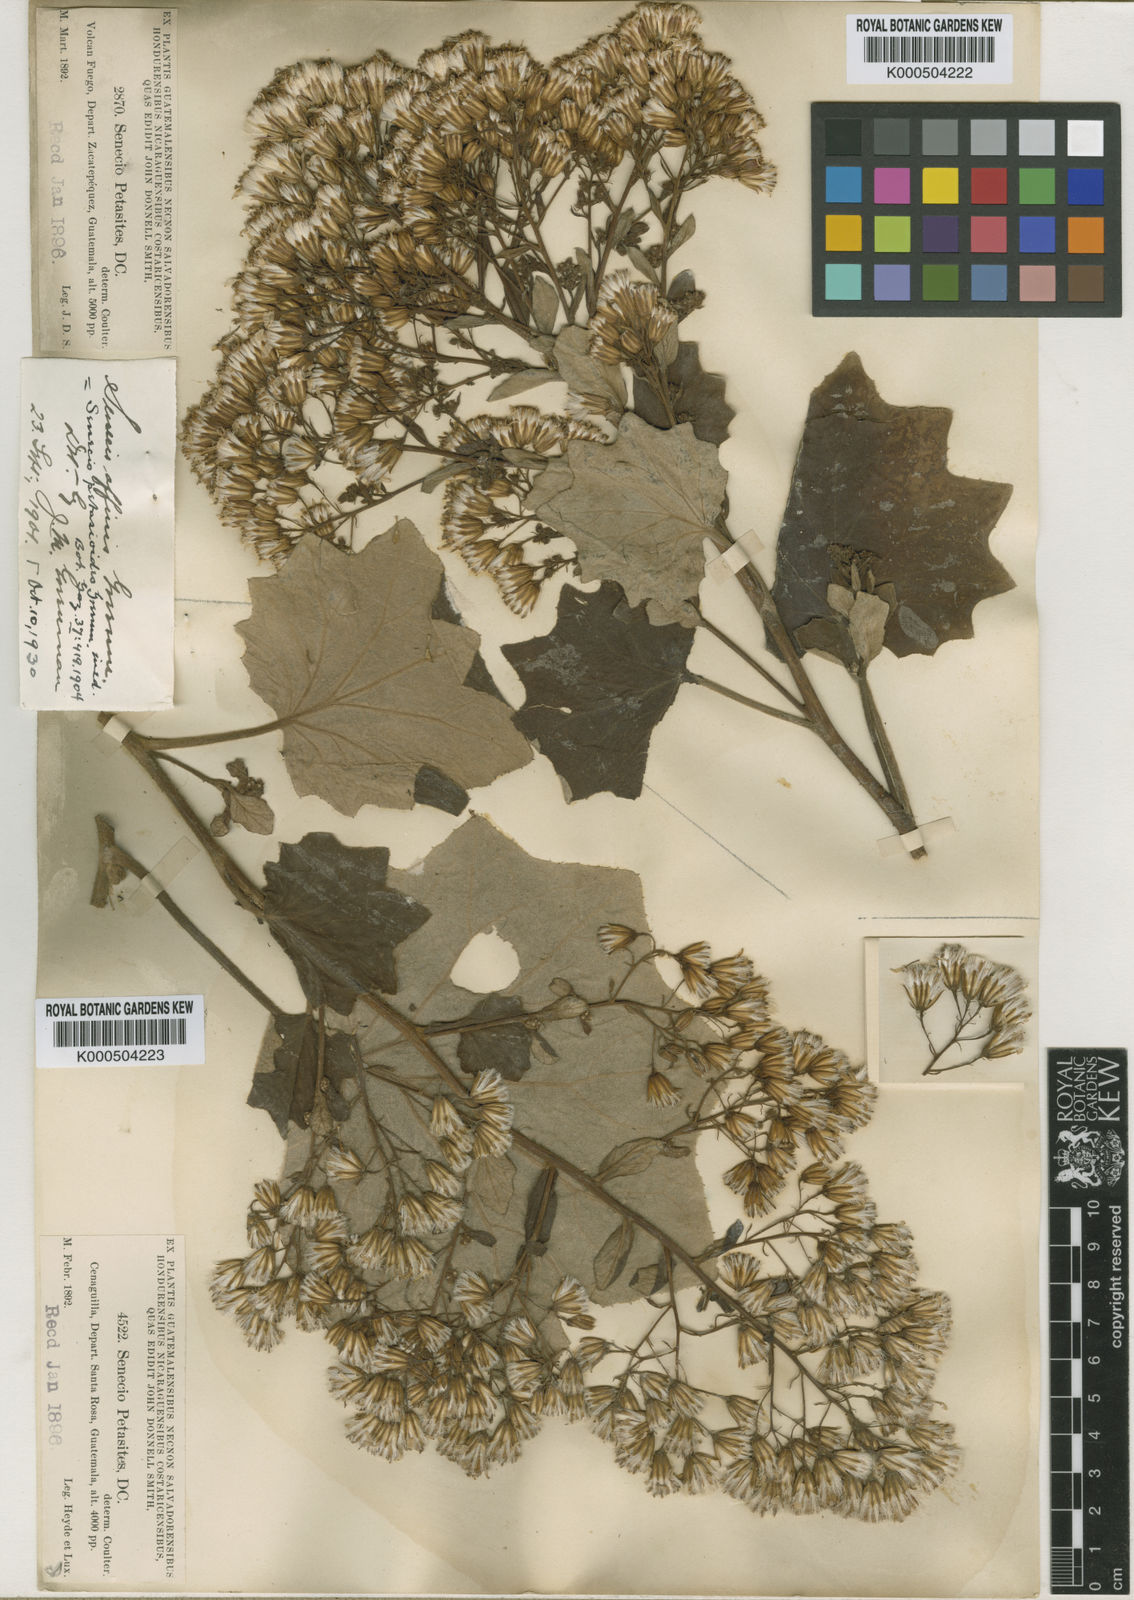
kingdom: Plantae
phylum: Tracheophyta
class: Magnoliopsida
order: Asterales
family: Asteraceae
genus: Roldana
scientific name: Roldana petasioides
